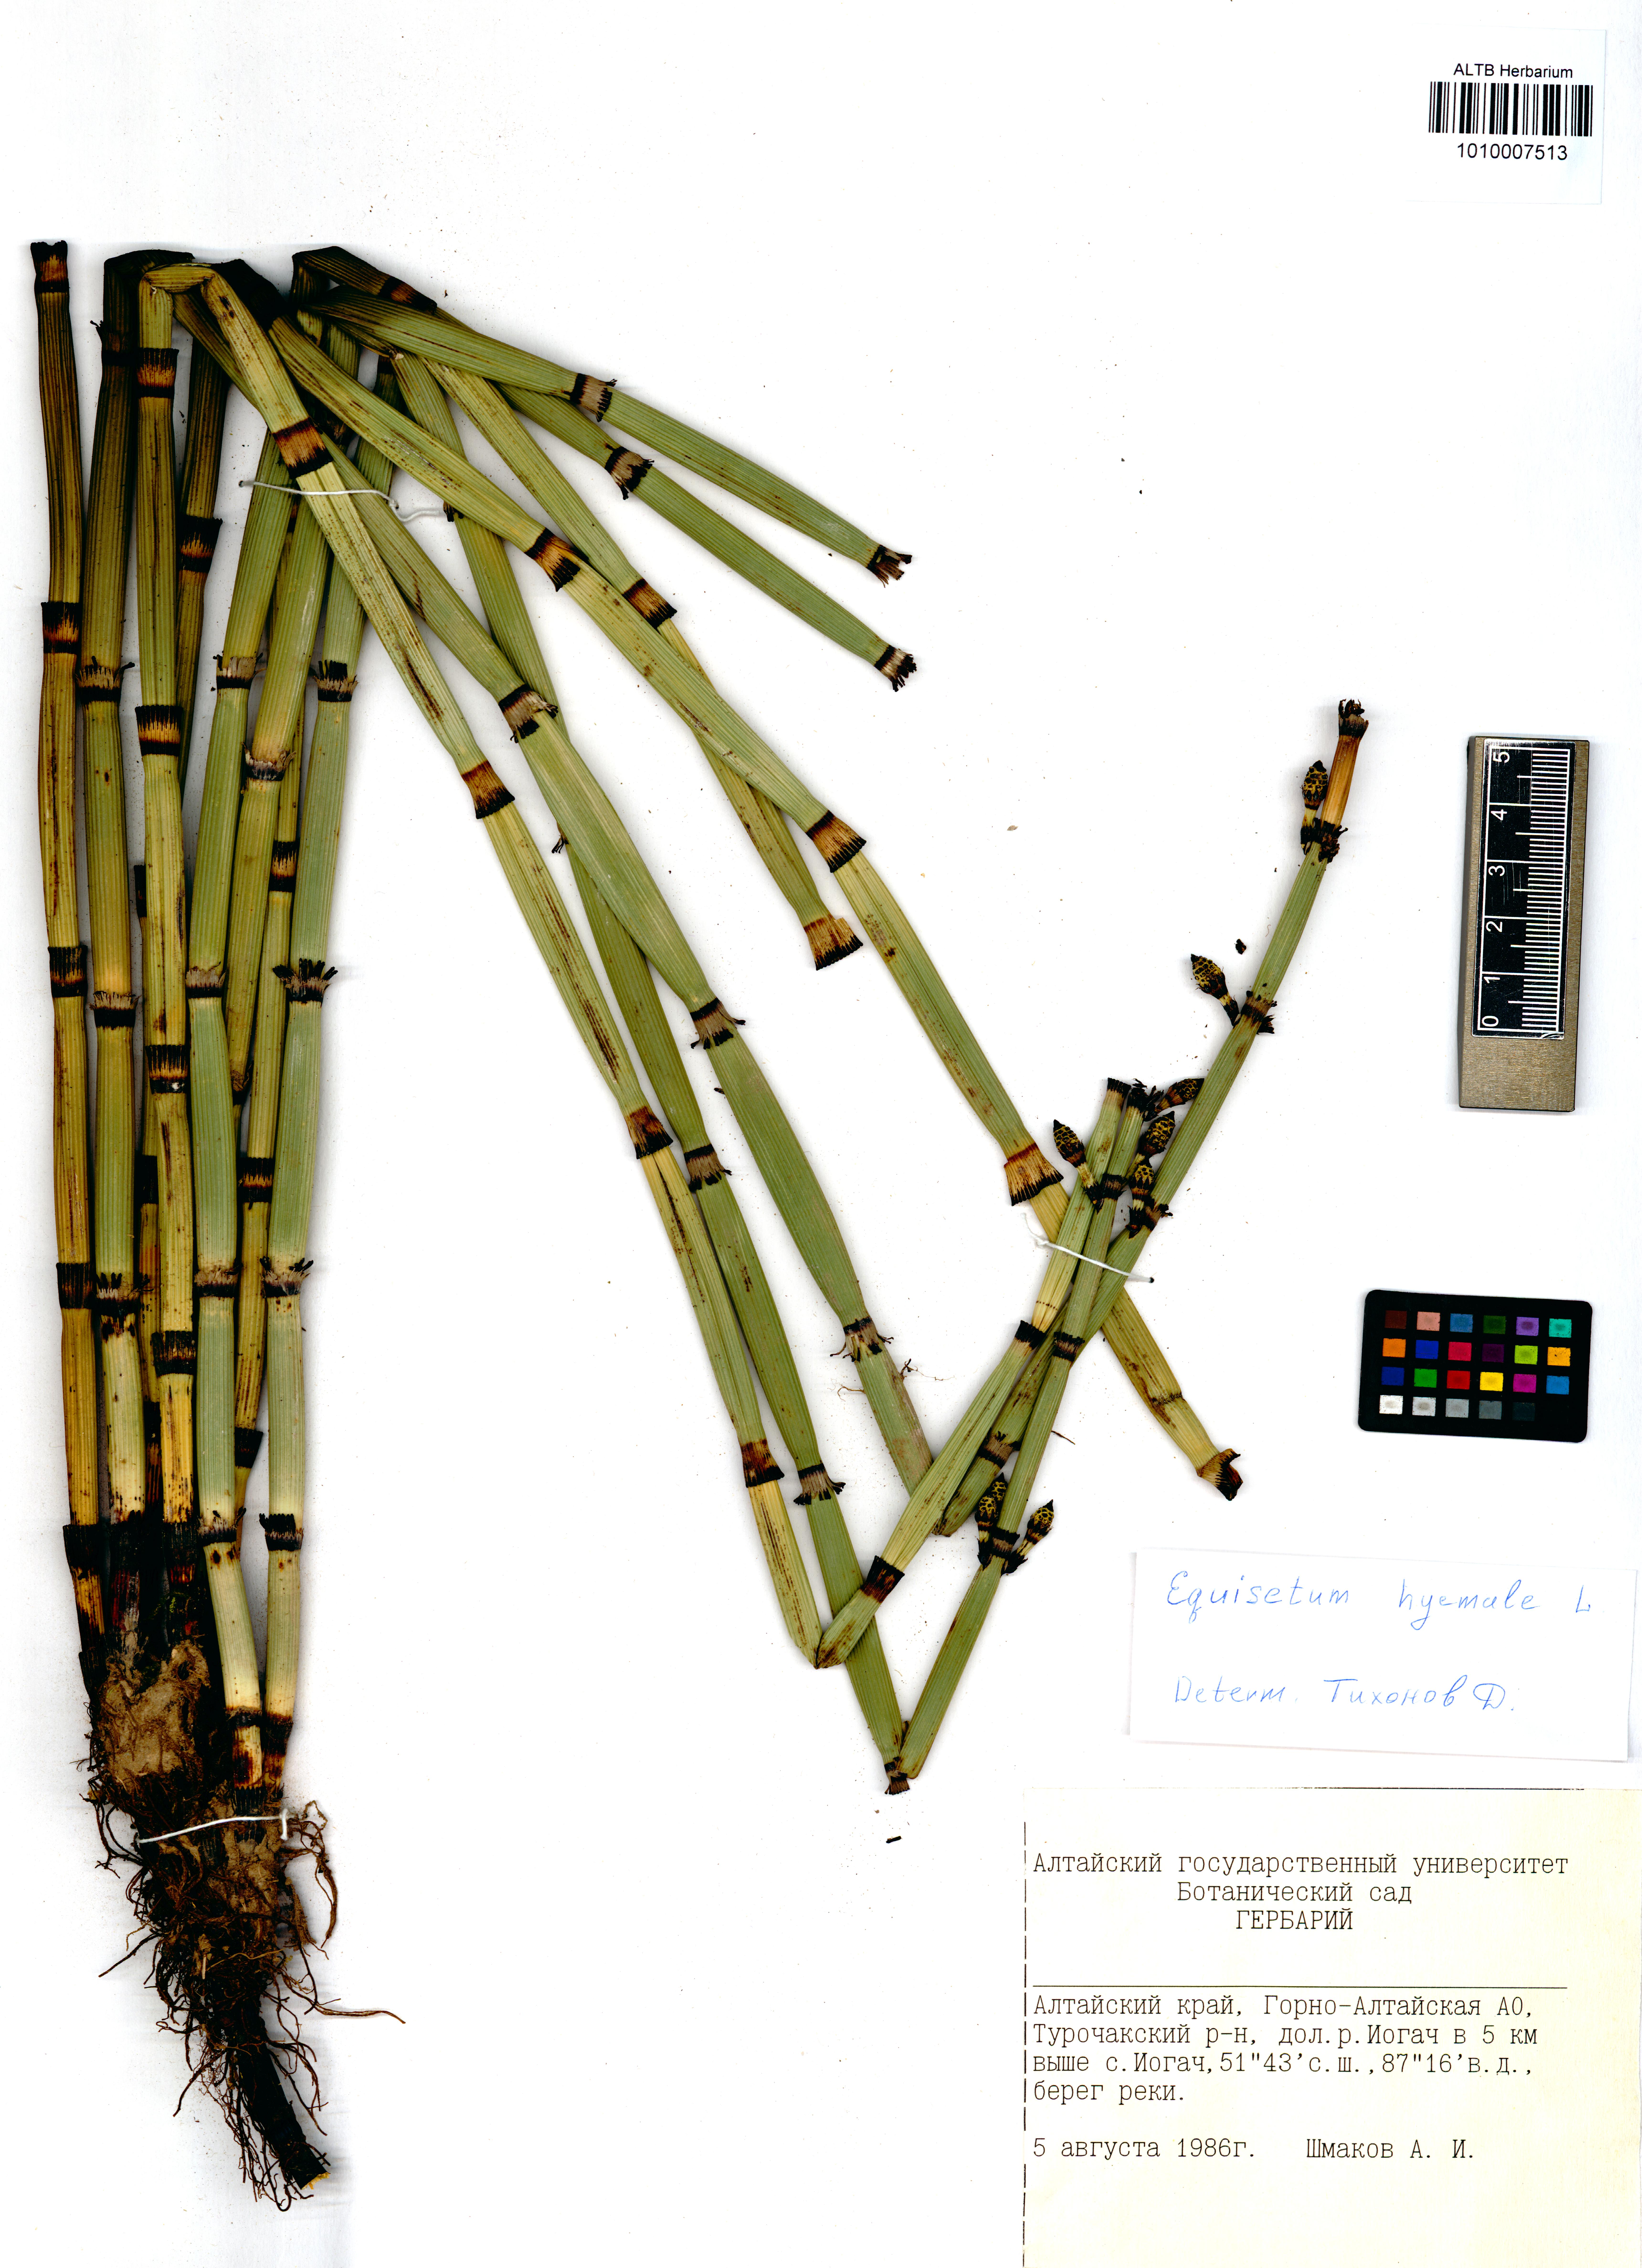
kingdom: Plantae
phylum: Tracheophyta
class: Polypodiopsida
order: Equisetales
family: Equisetaceae
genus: Equisetum
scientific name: Equisetum hyemale
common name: Rough horsetail
